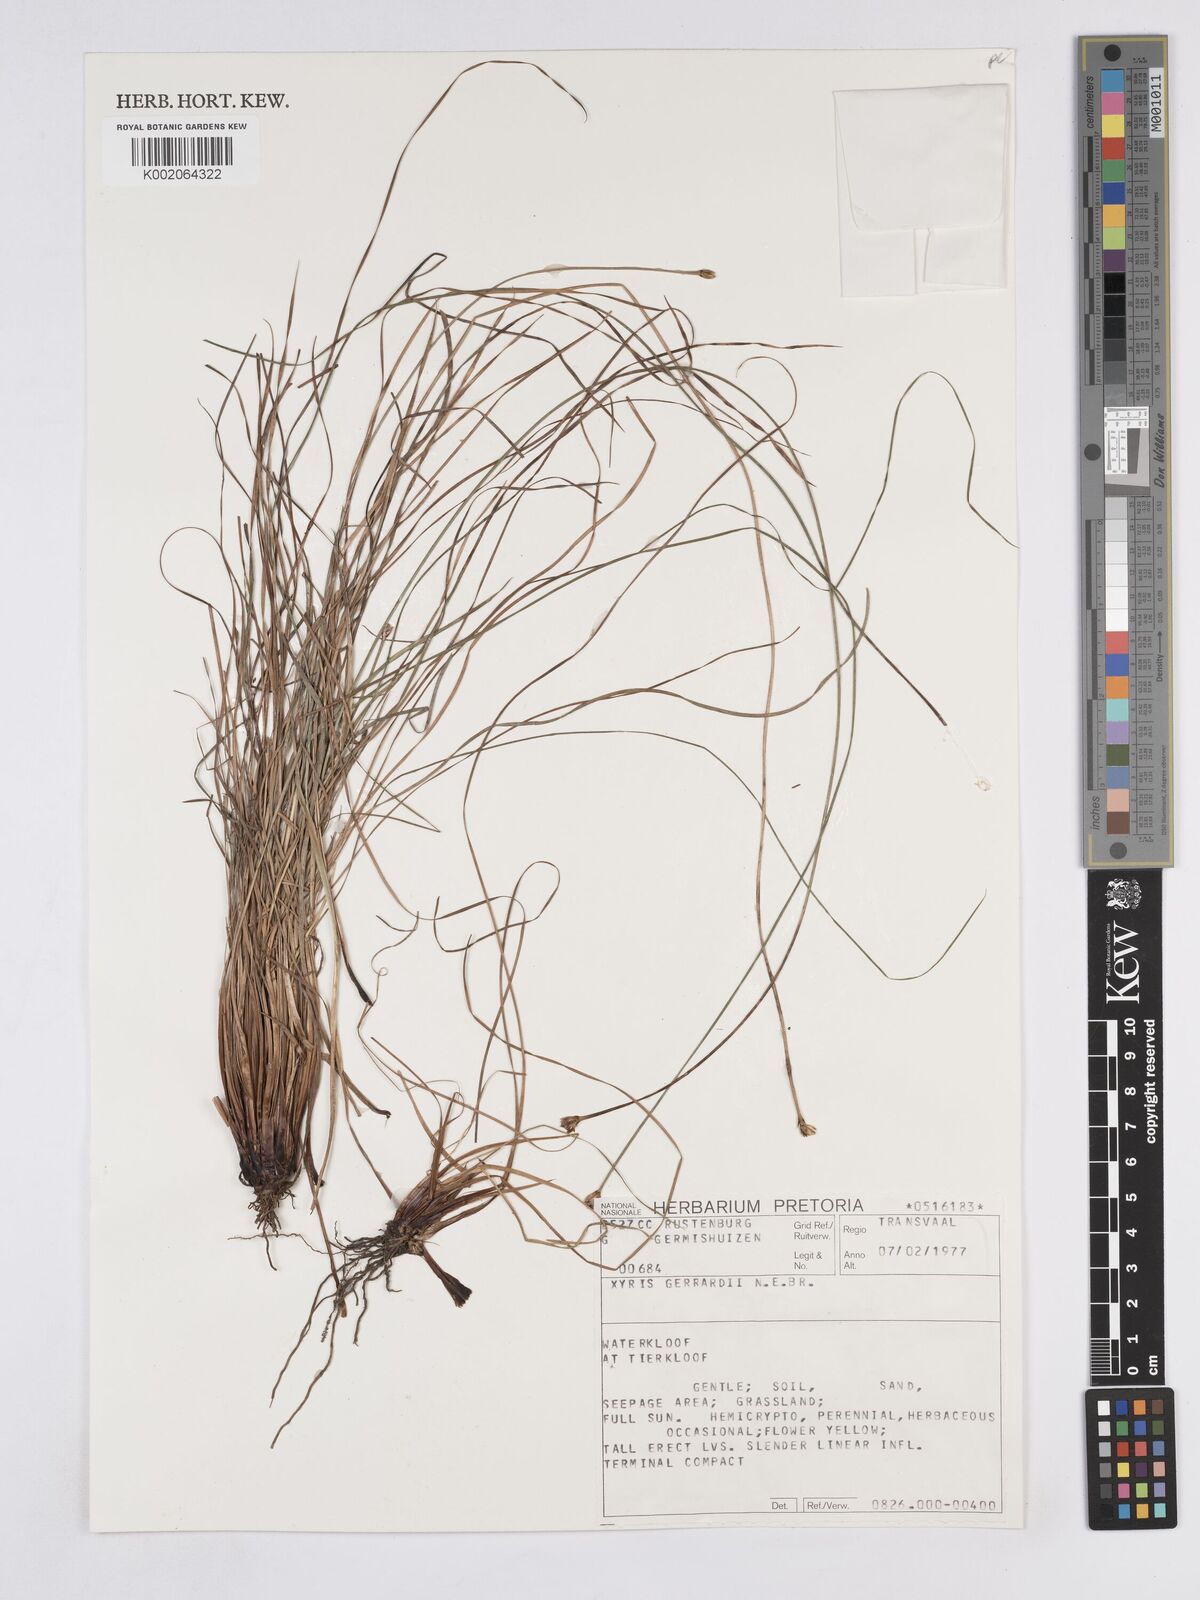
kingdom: Plantae
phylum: Tracheophyta
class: Liliopsida
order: Poales
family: Xyridaceae
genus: Xyris
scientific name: Xyris gerrardii
